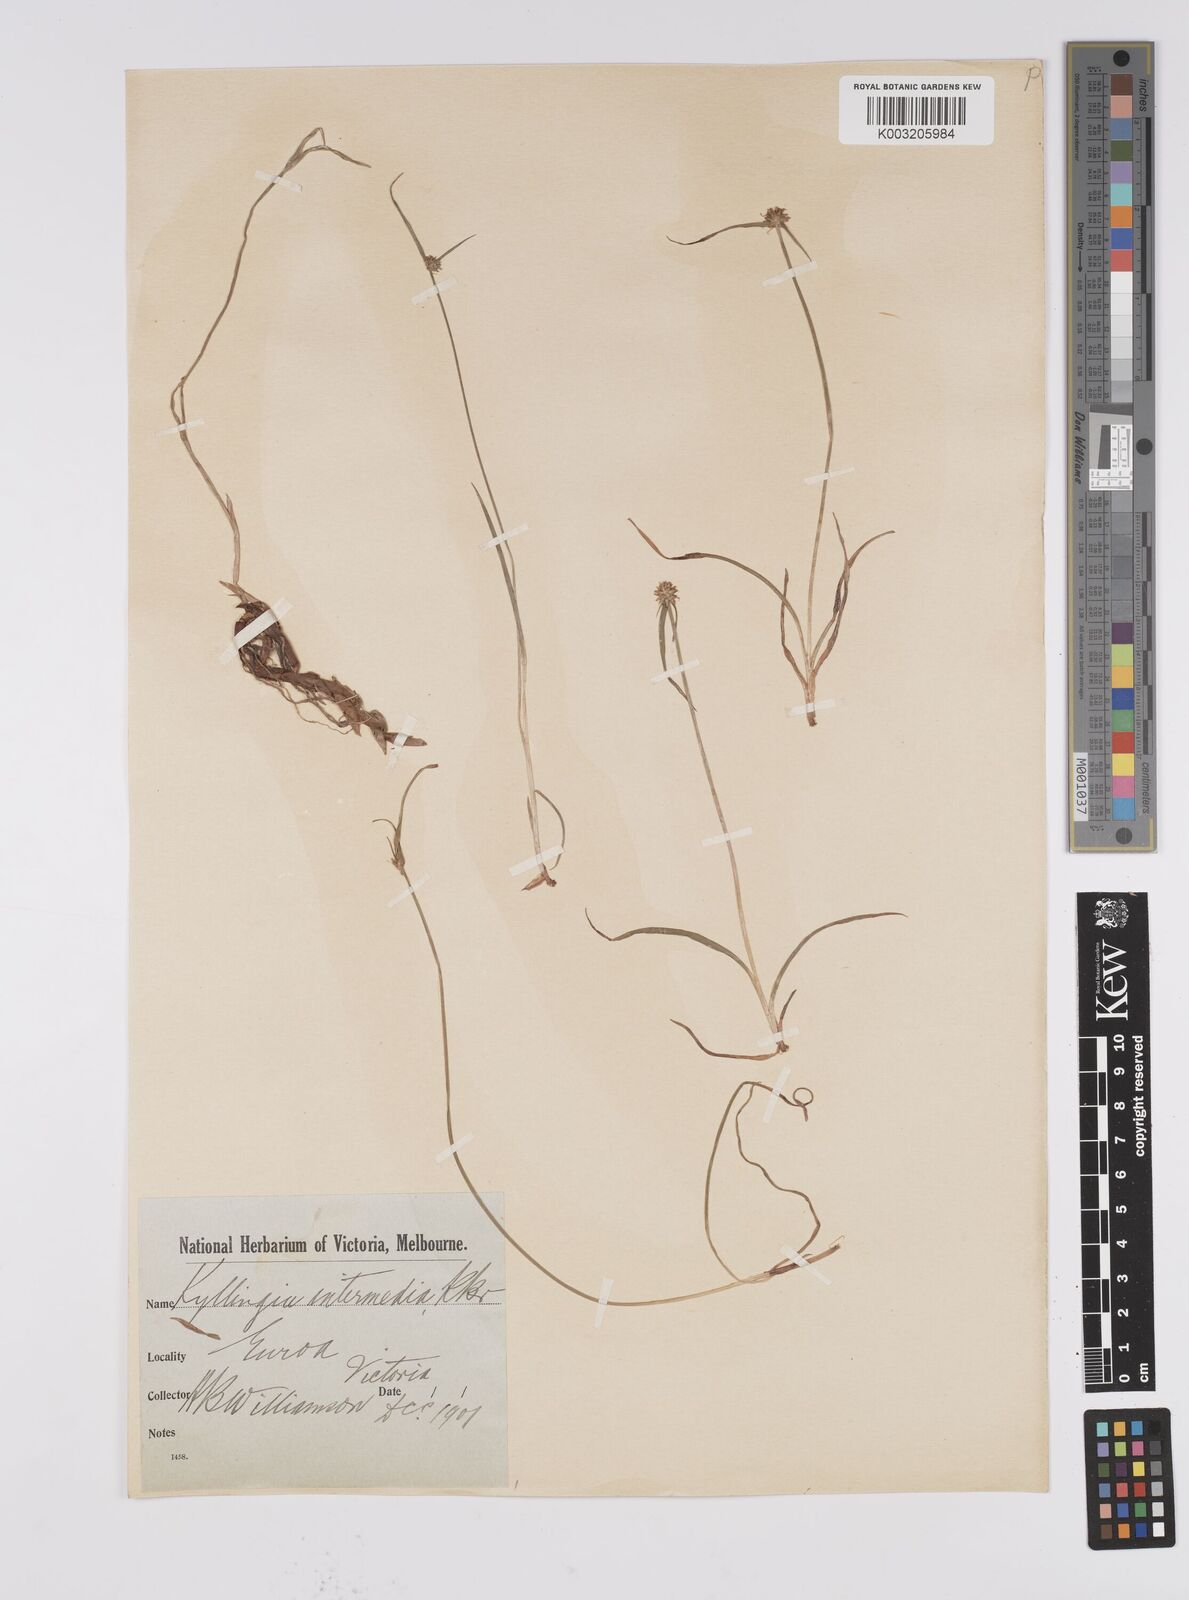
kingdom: Plantae
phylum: Tracheophyta
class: Liliopsida
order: Poales
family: Cyperaceae
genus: Cyperus
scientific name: Cyperus brevifolius
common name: Globe kyllinga
